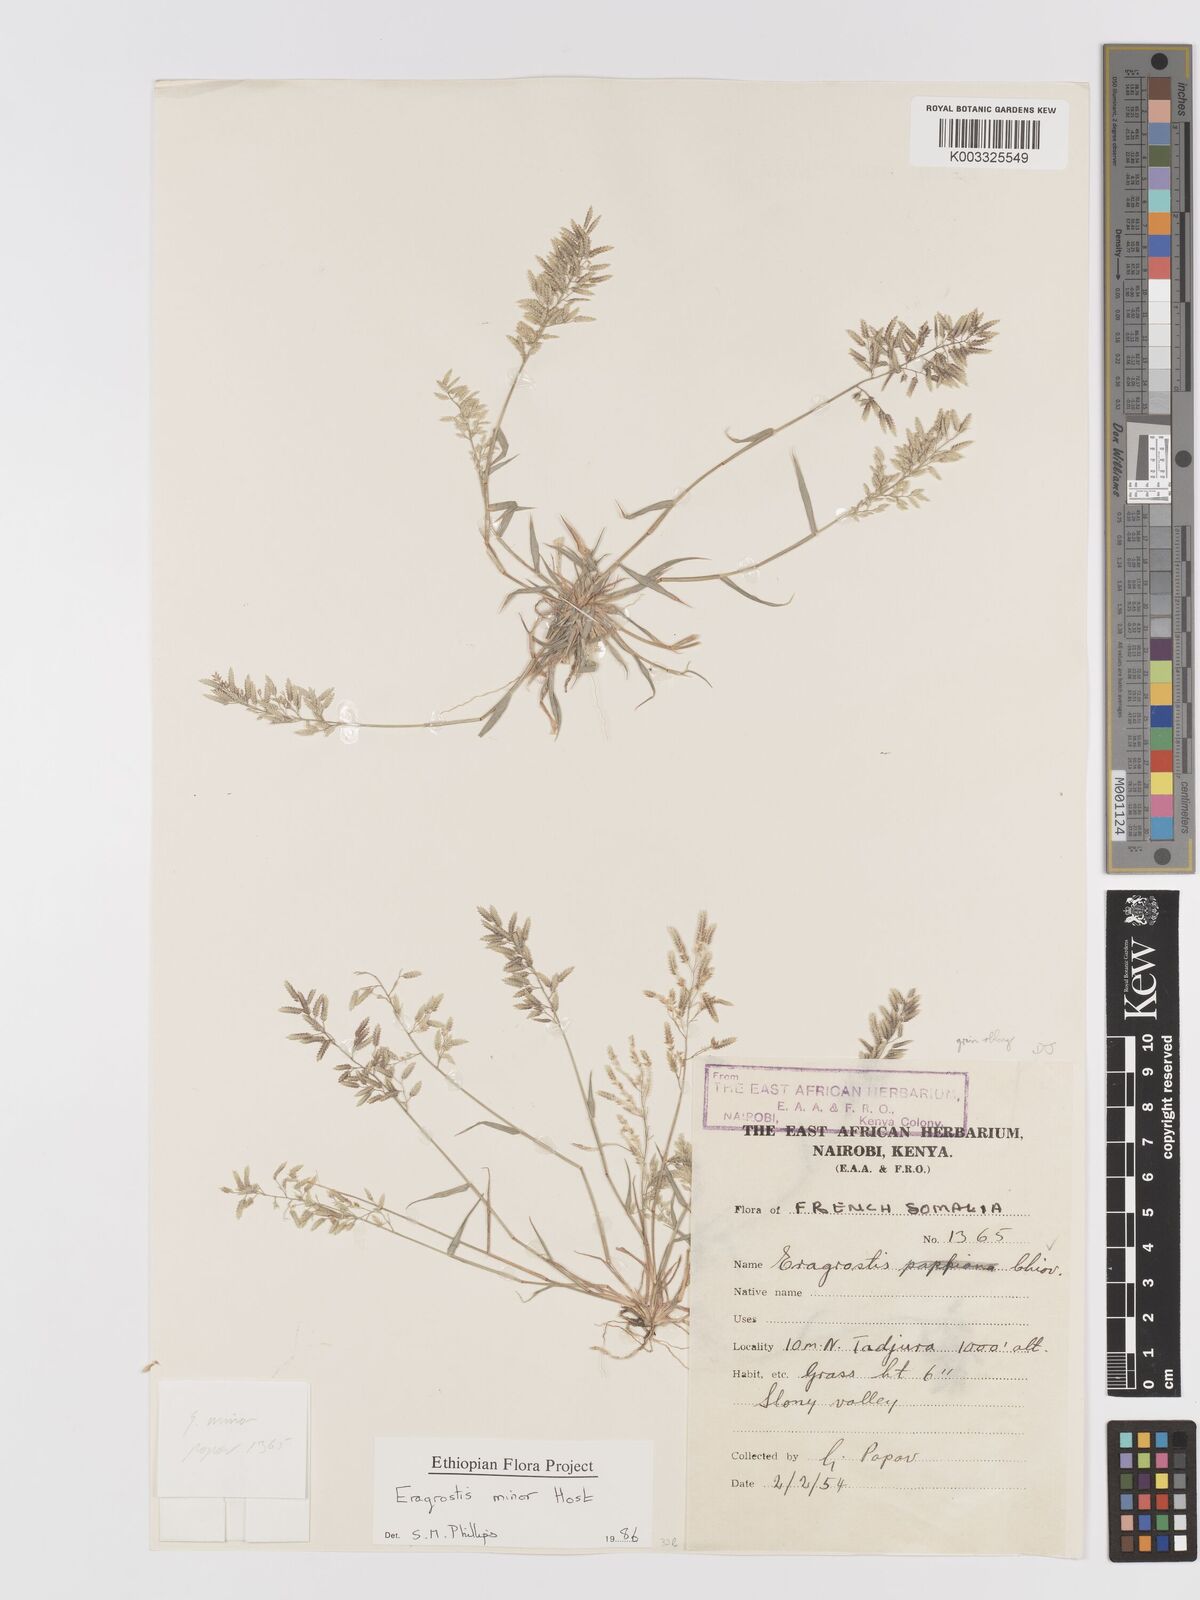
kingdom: Plantae
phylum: Tracheophyta
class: Liliopsida
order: Poales
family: Poaceae
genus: Eragrostis
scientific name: Eragrostis minor
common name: Small love-grass
